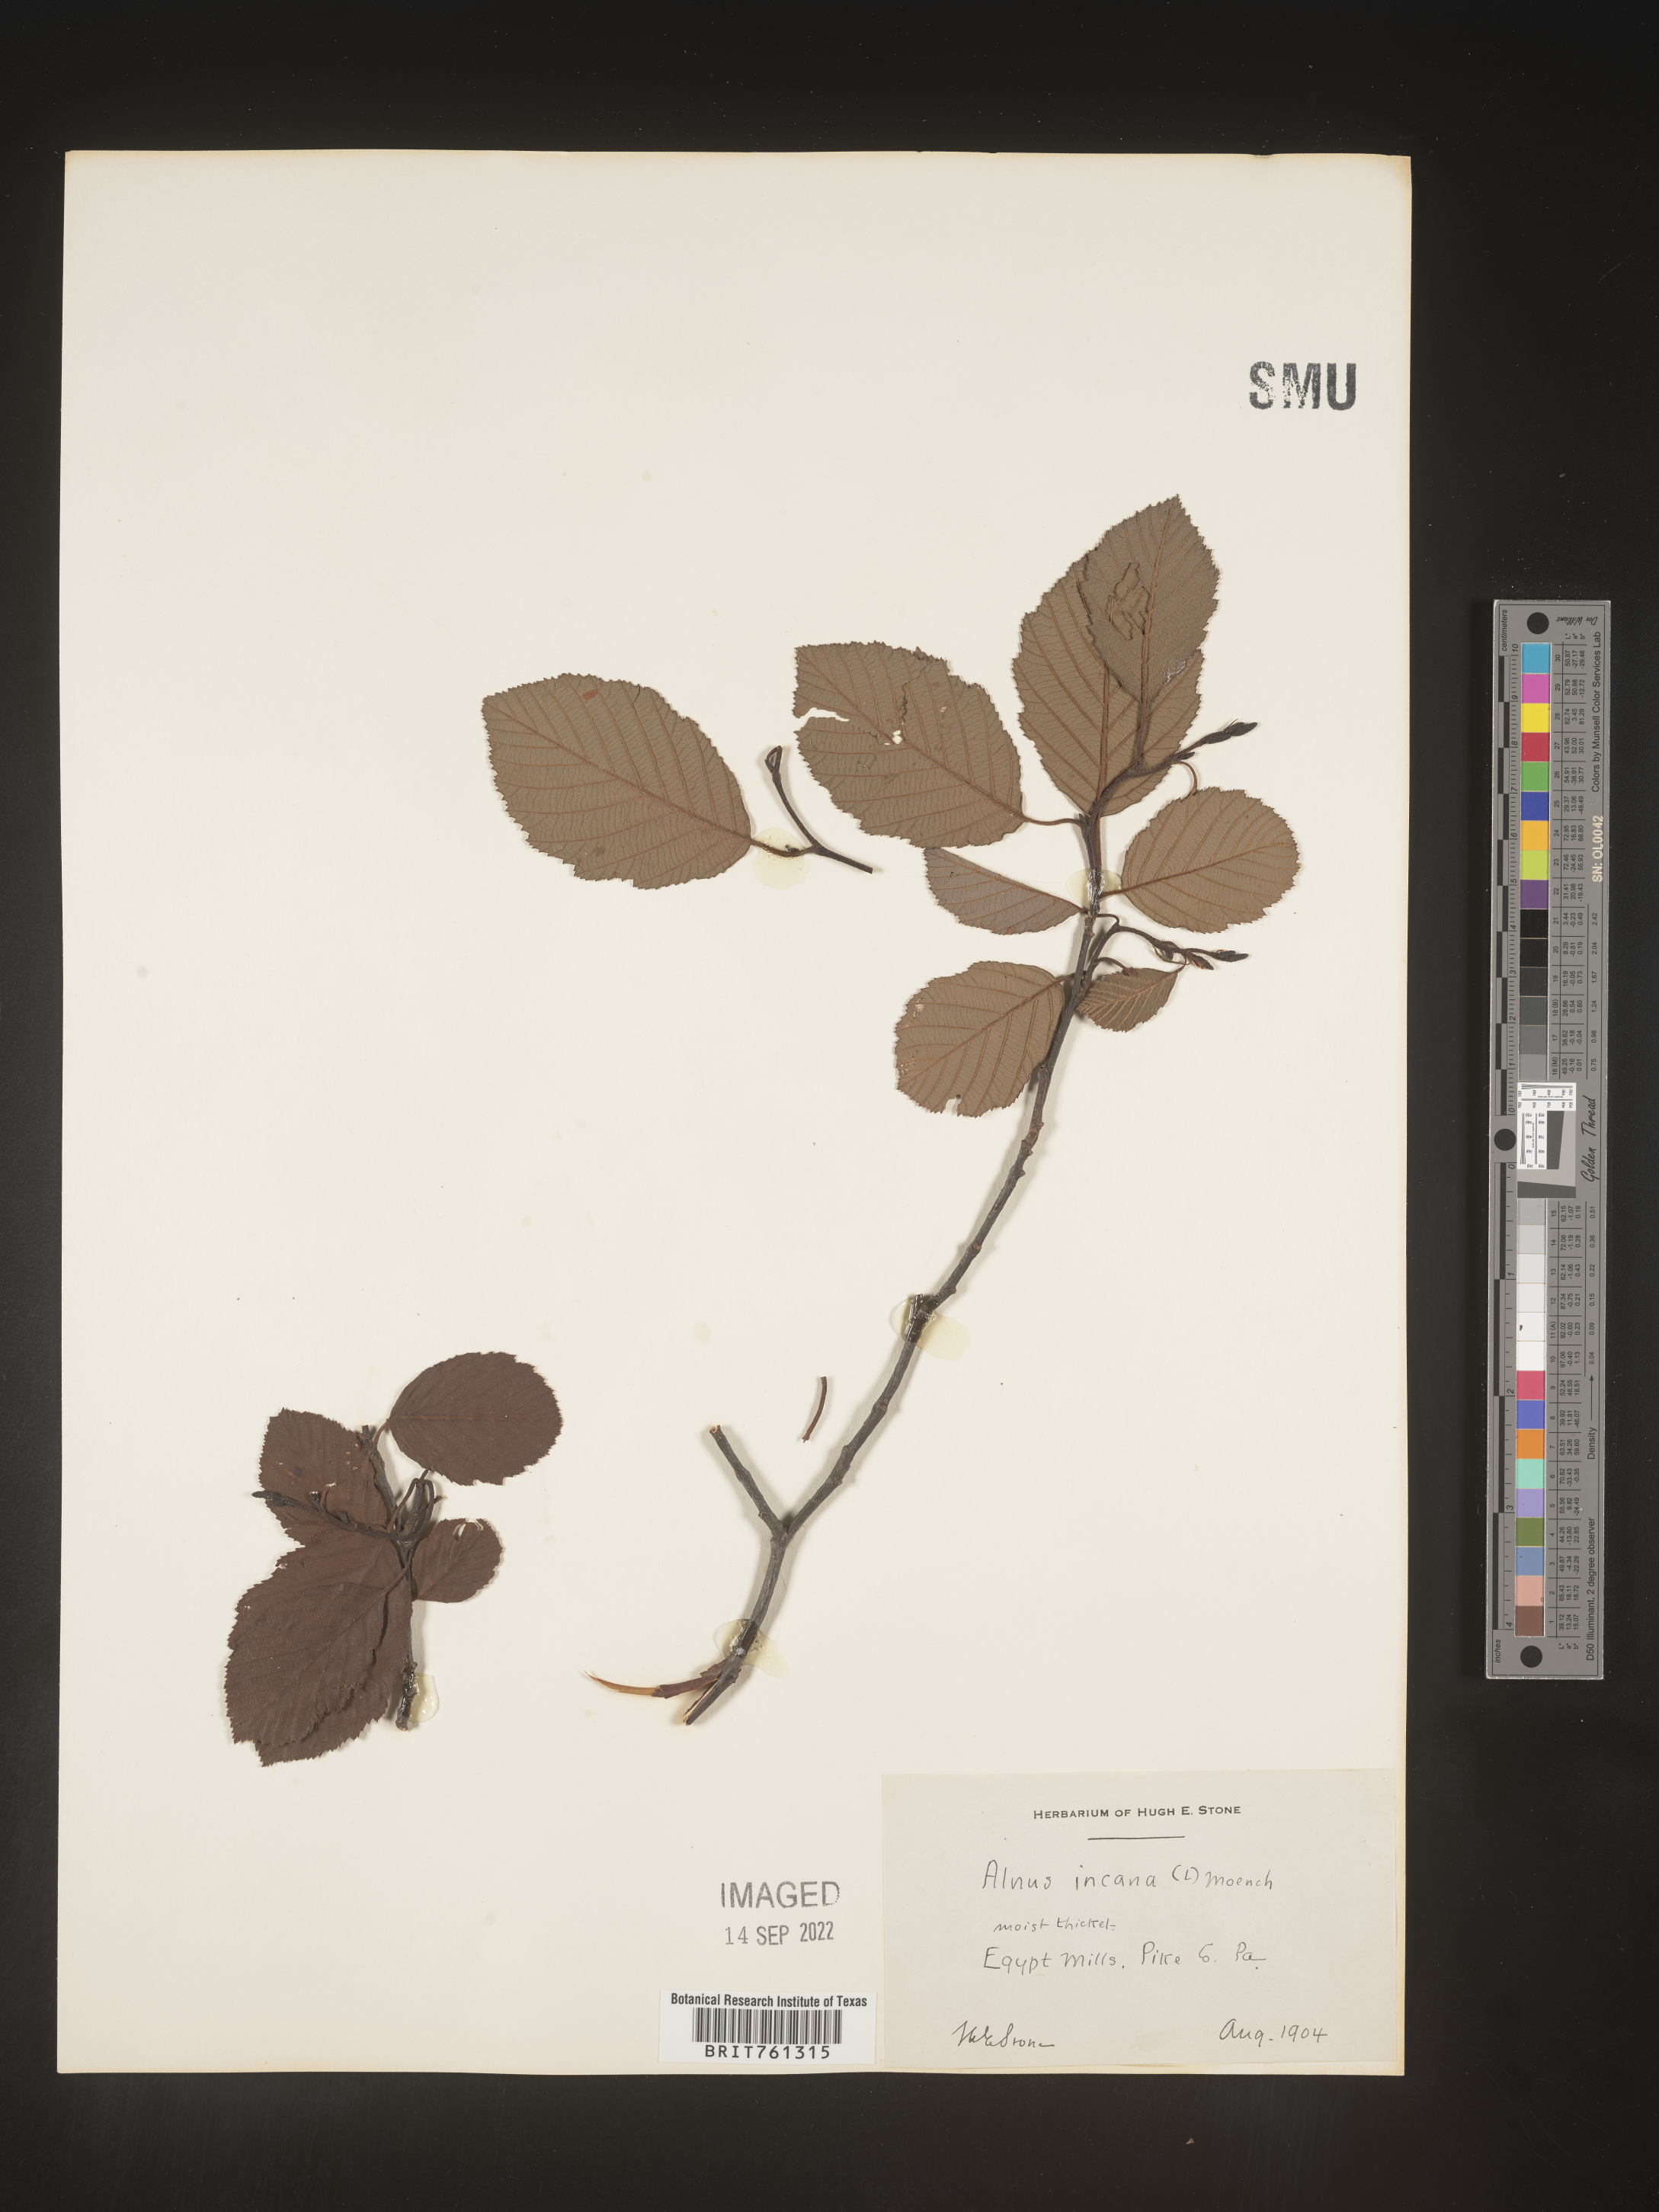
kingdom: Plantae
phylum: Tracheophyta
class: Magnoliopsida
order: Fagales
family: Betulaceae
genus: Alnus
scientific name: Alnus incana
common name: Grey alder
